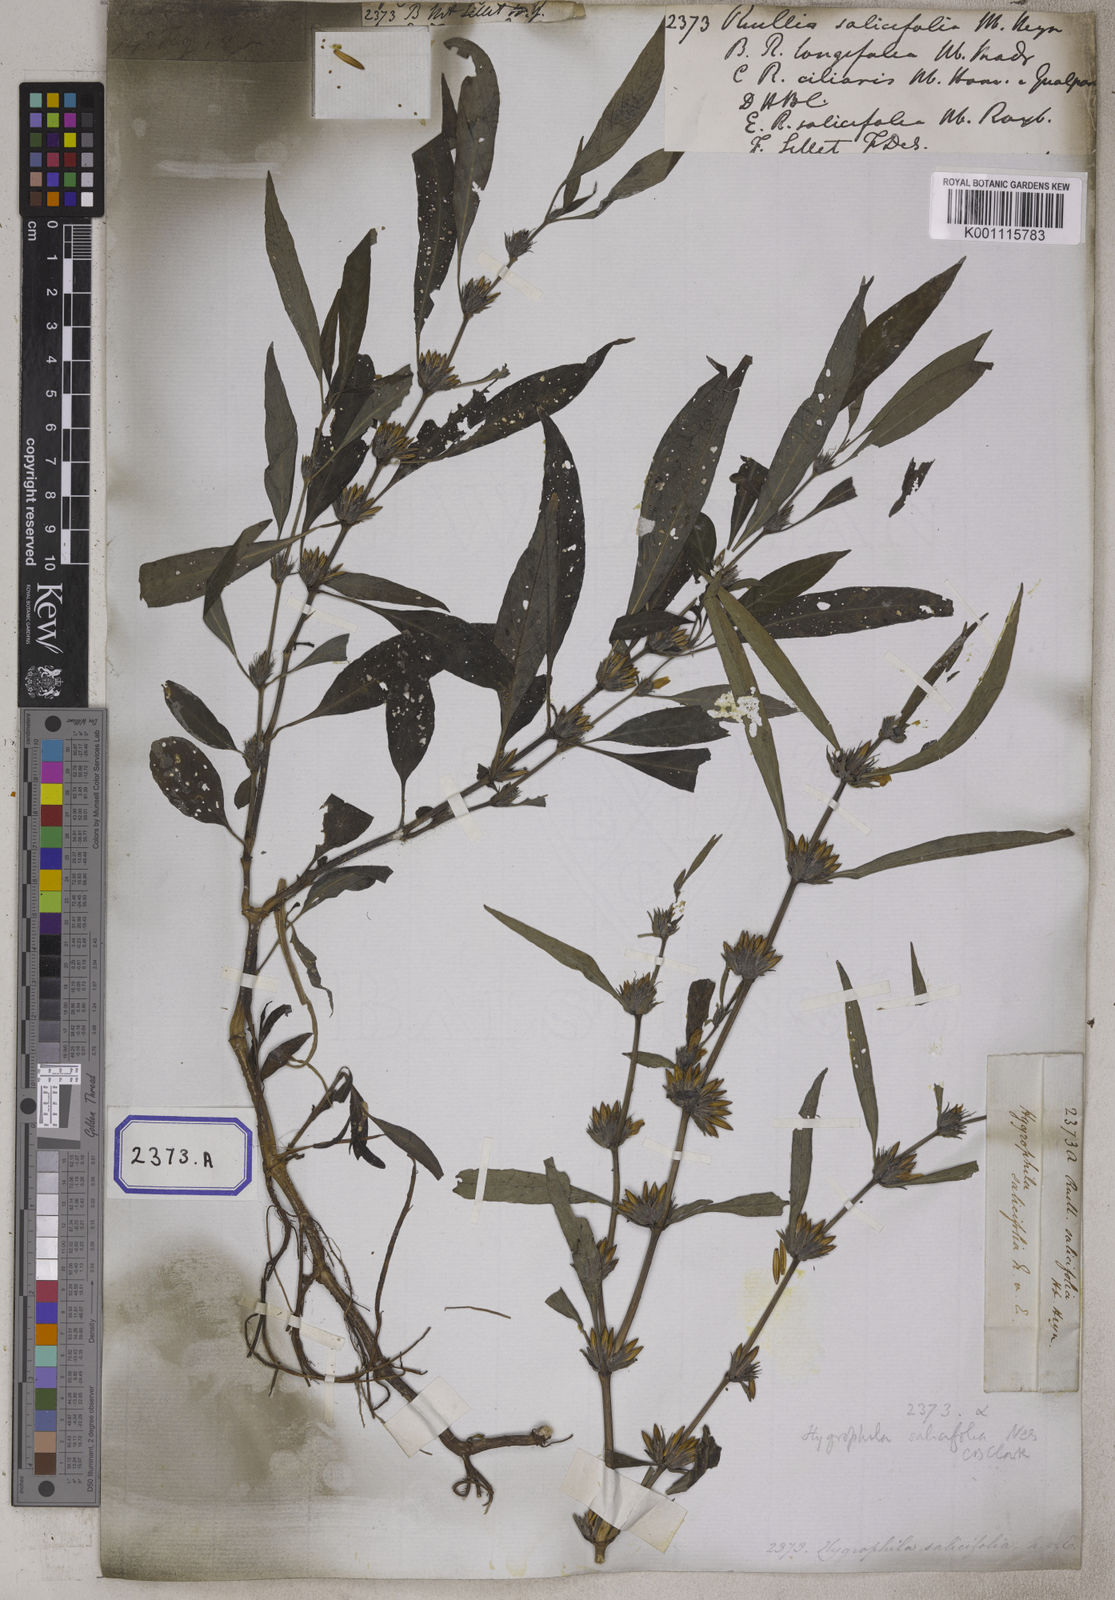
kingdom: Plantae
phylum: Tracheophyta
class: Magnoliopsida
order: Lamiales
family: Acanthaceae
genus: Hygrophila
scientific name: Hygrophila erecta
